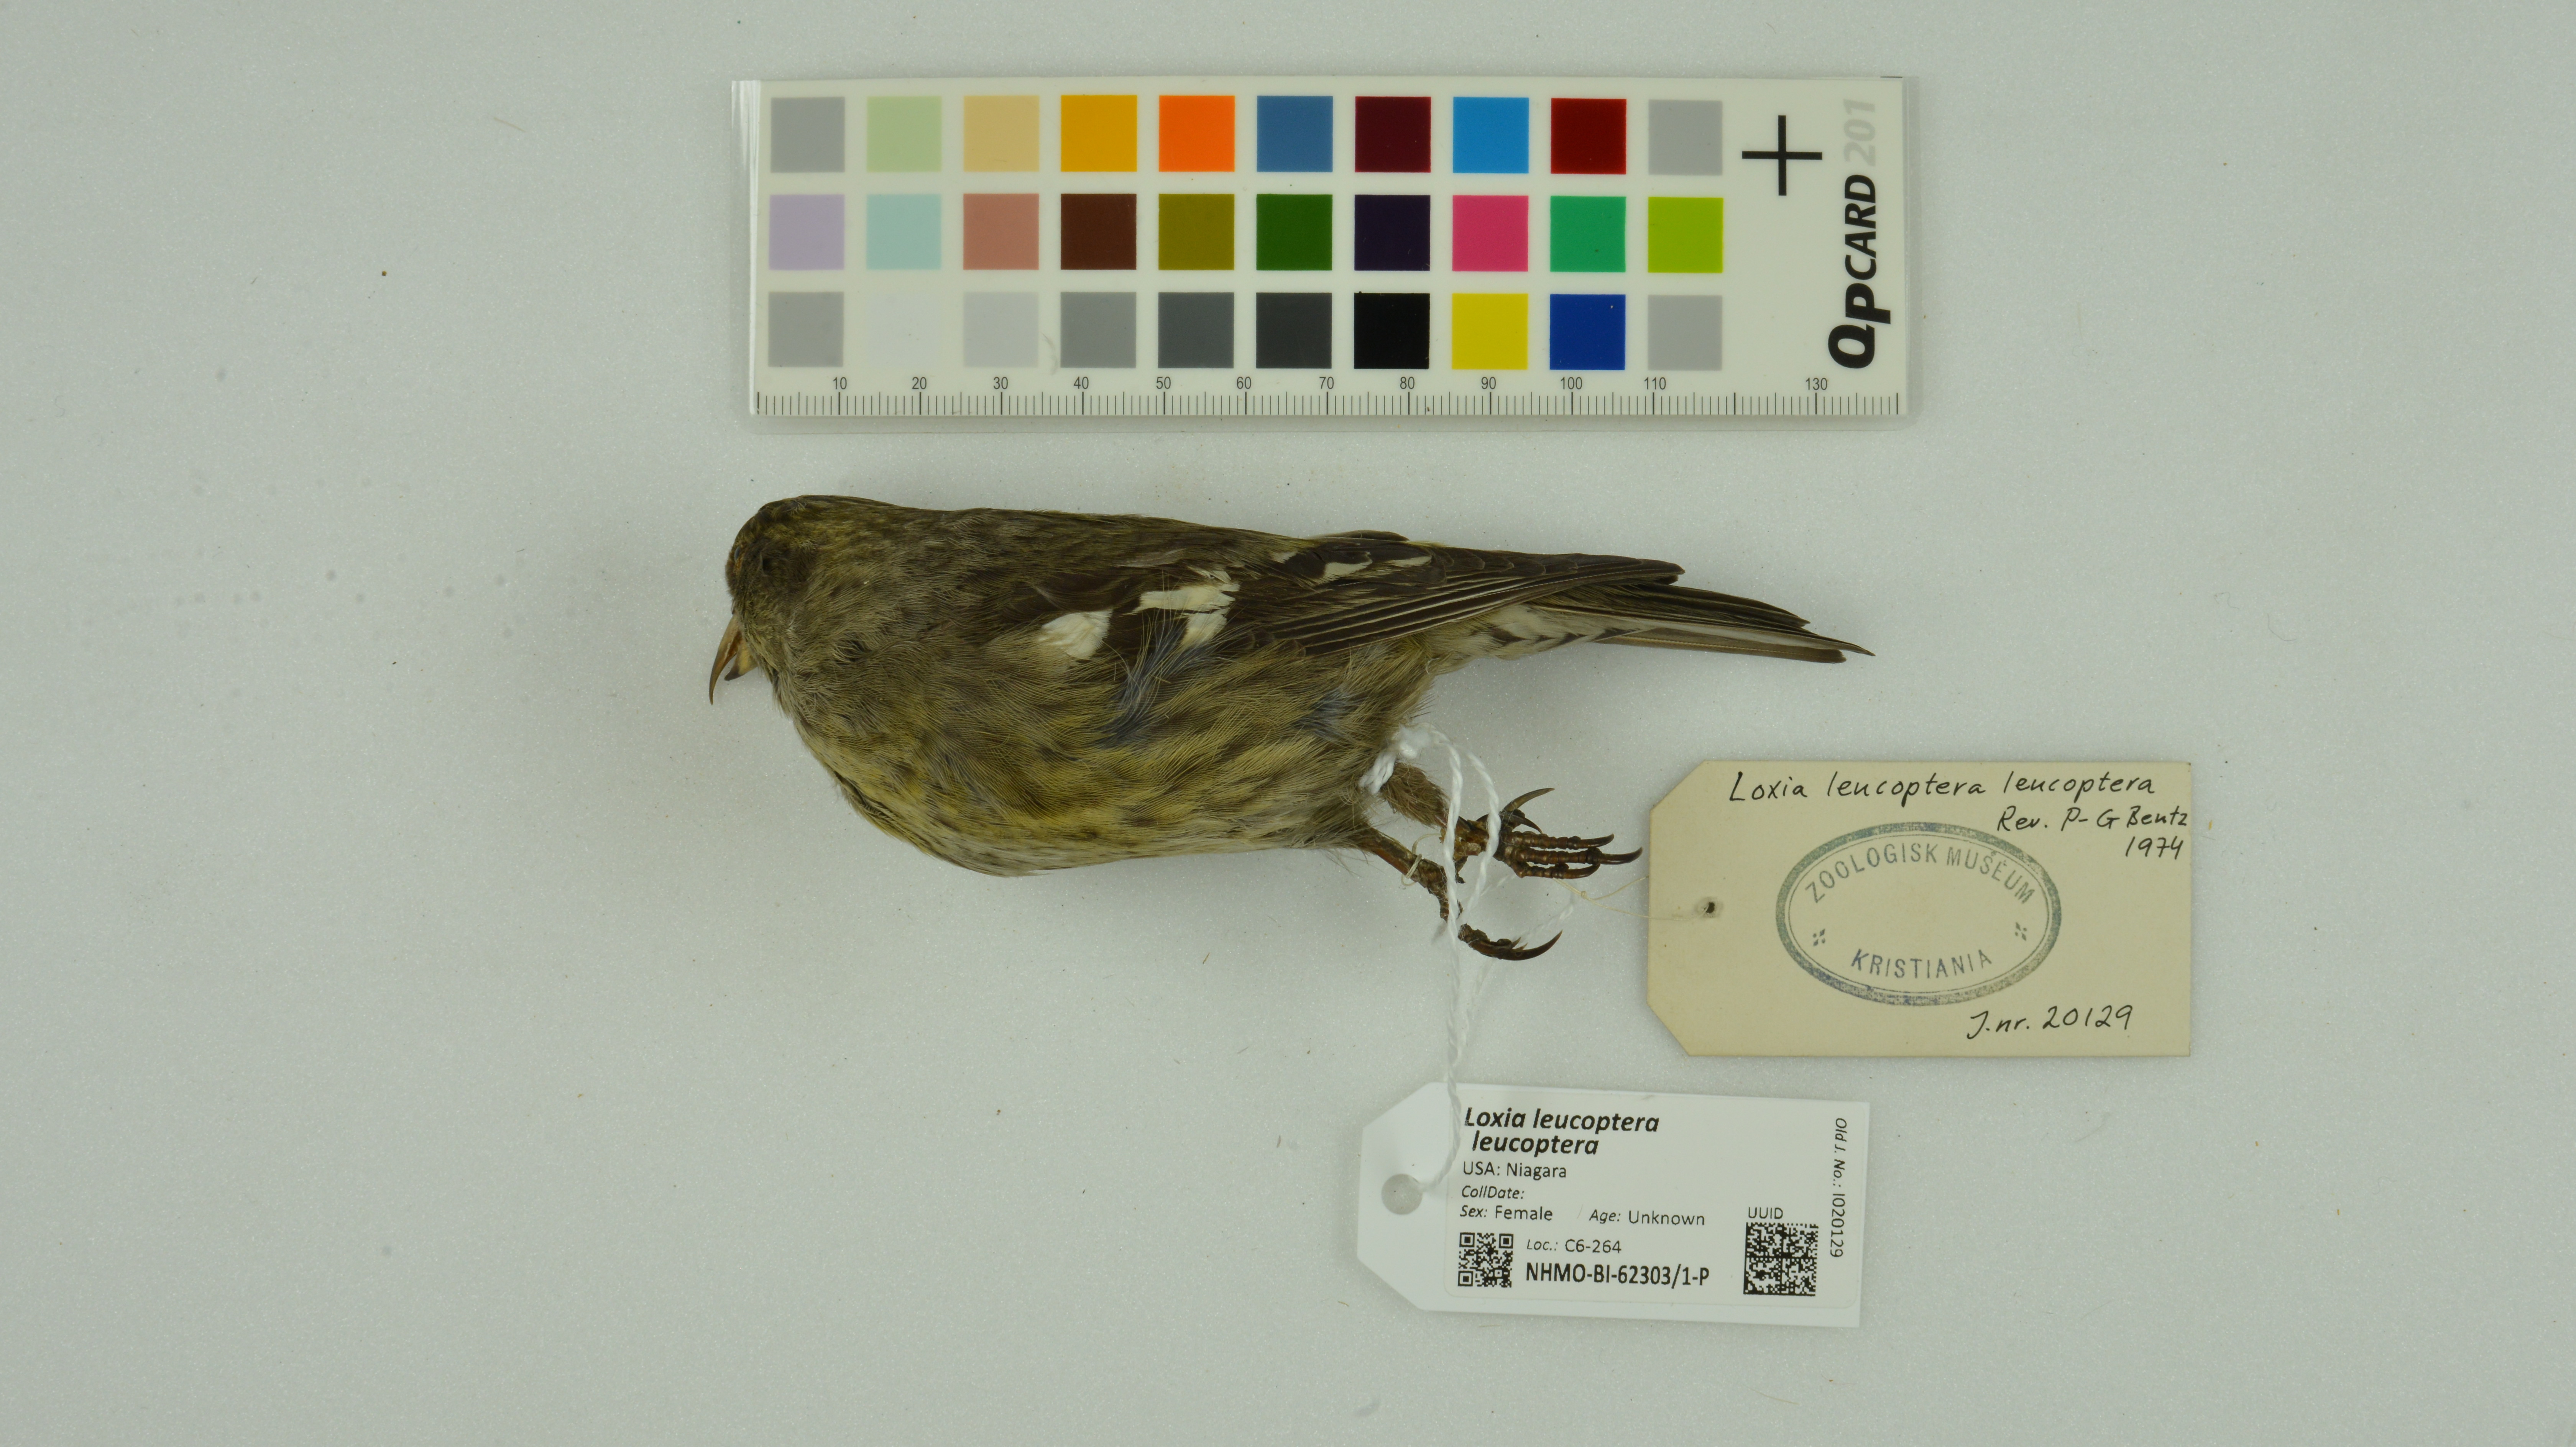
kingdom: Animalia
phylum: Chordata
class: Aves
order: Passeriformes
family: Fringillidae
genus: Loxia
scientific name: Loxia leucoptera
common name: Two-barred crossbill
